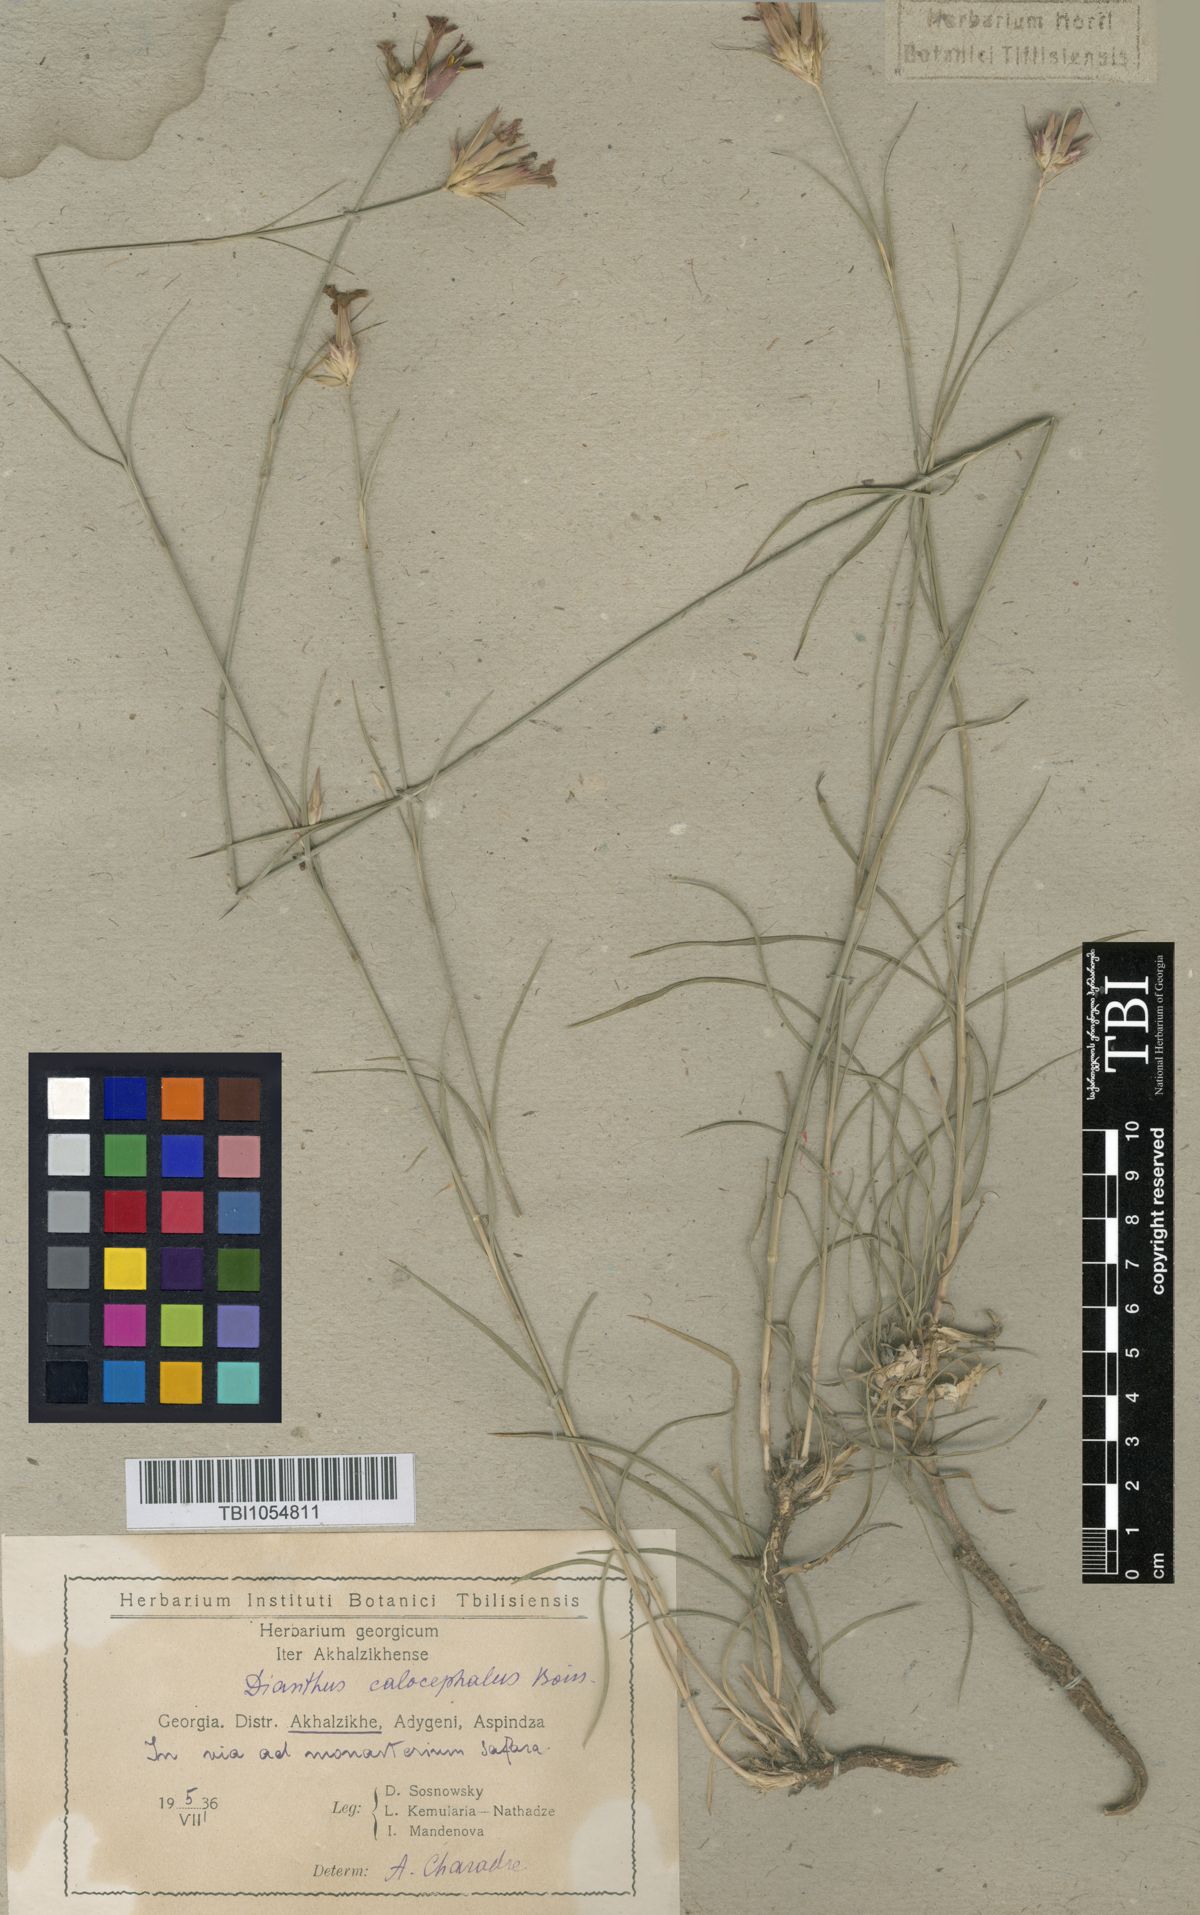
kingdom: Plantae
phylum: Tracheophyta
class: Magnoliopsida
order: Caryophyllales
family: Caryophyllaceae
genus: Dianthus
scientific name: Dianthus cruentus
